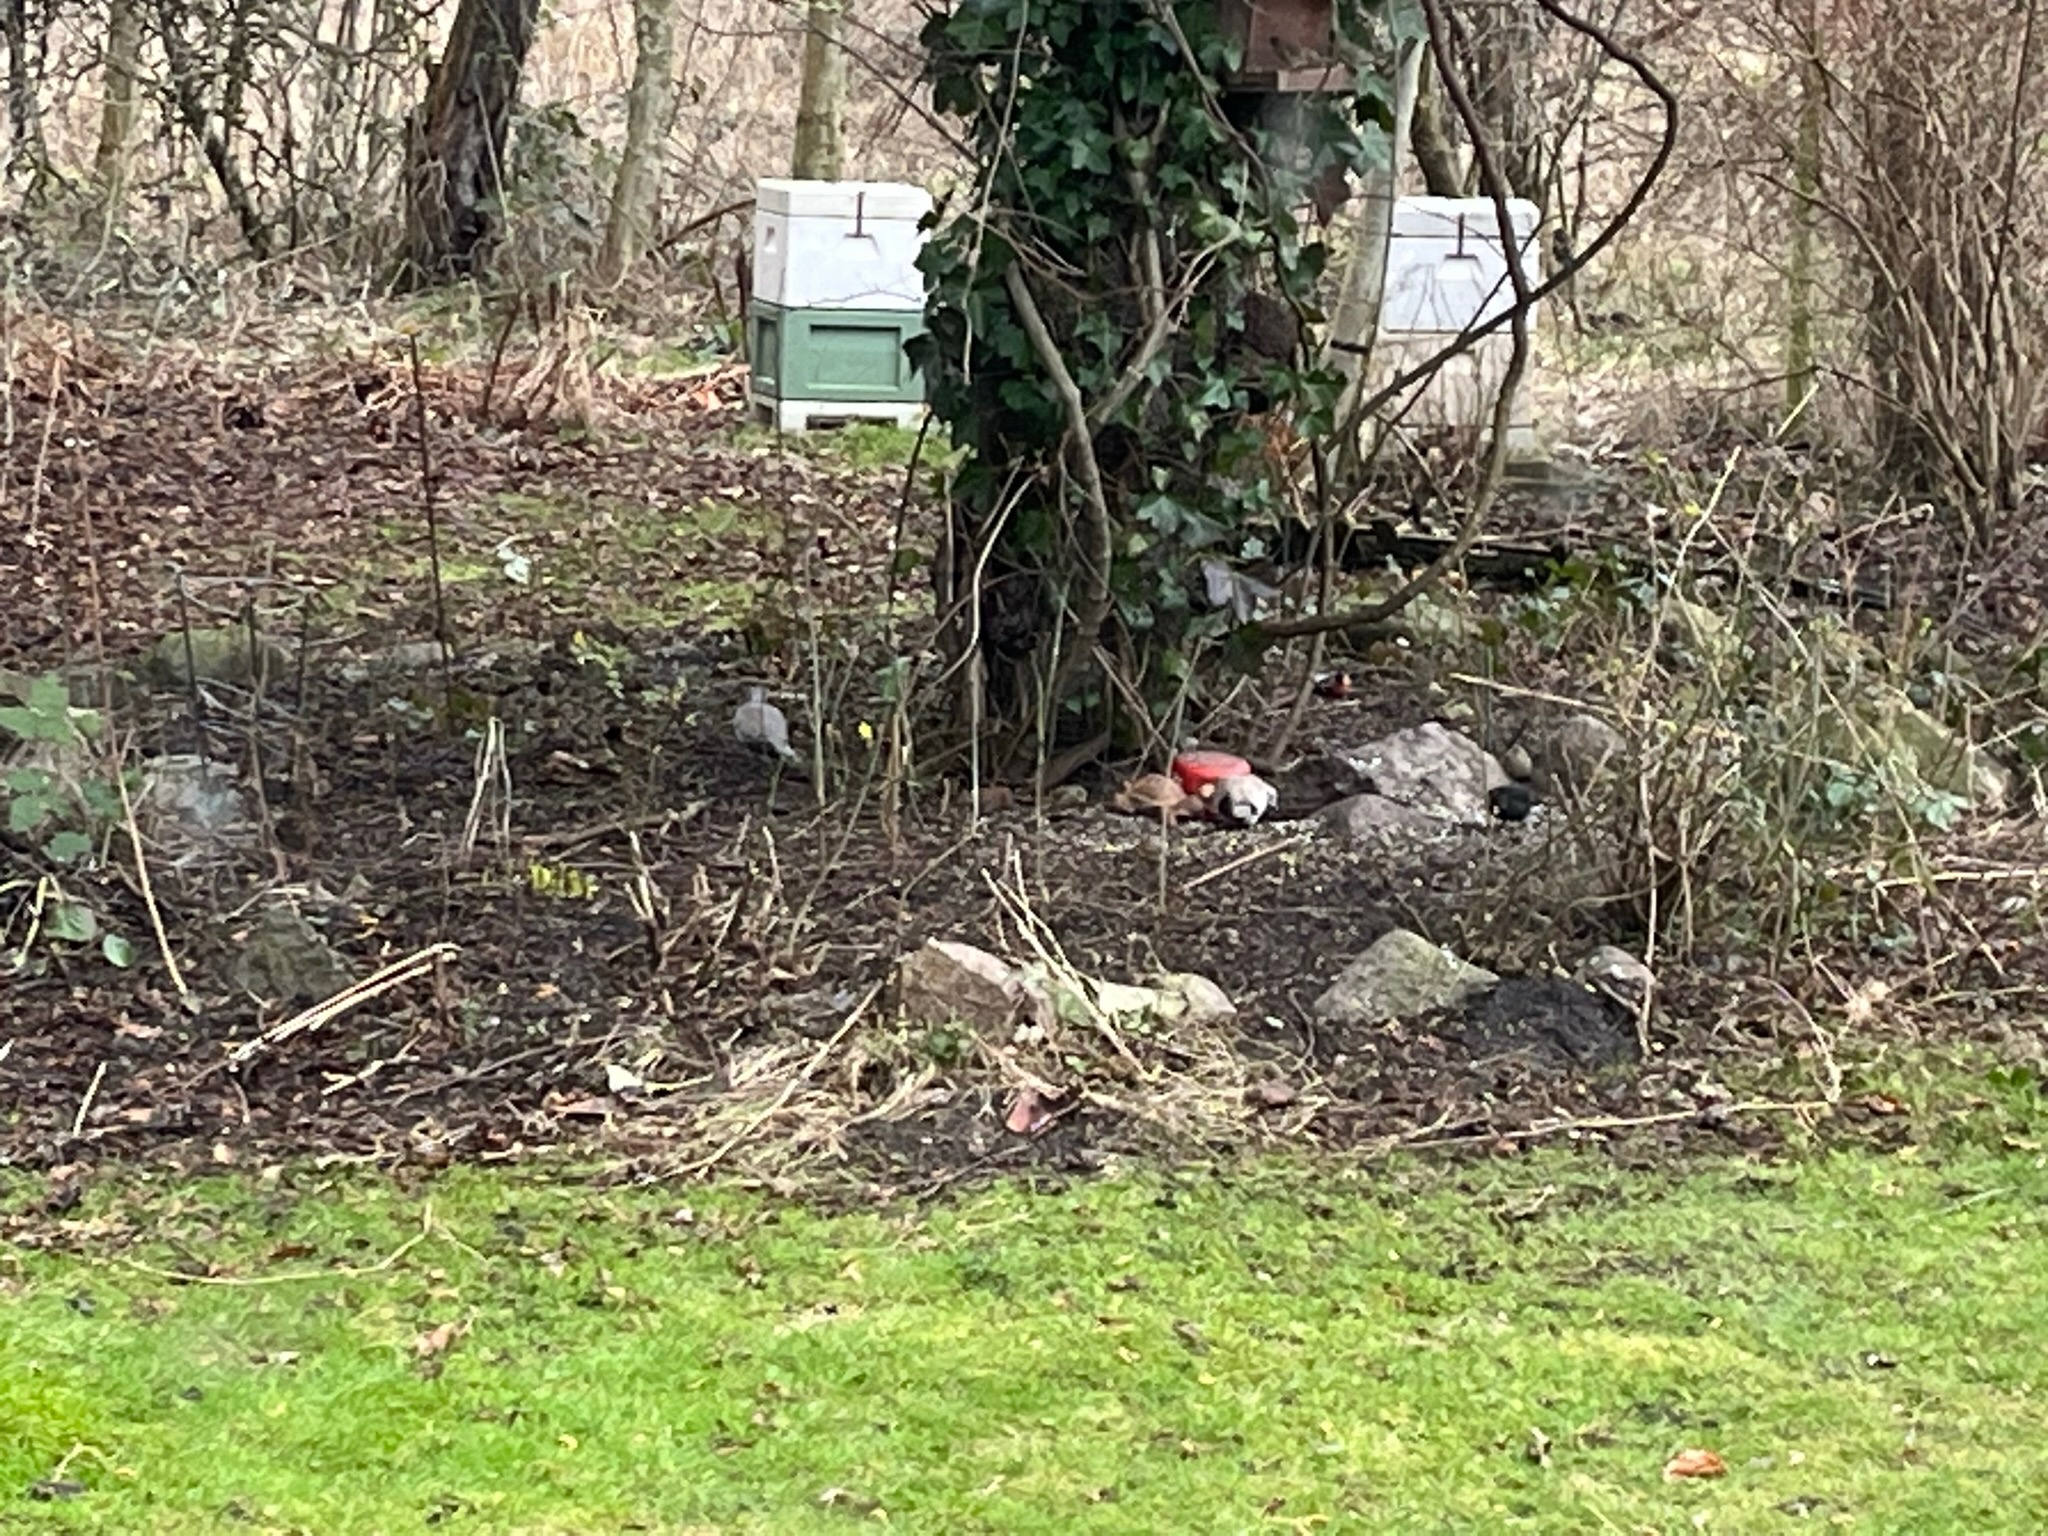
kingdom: Animalia
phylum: Chordata
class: Aves
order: Columbiformes
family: Columbidae
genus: Streptopelia
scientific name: Streptopelia decaocto
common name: Tyrkerdue
